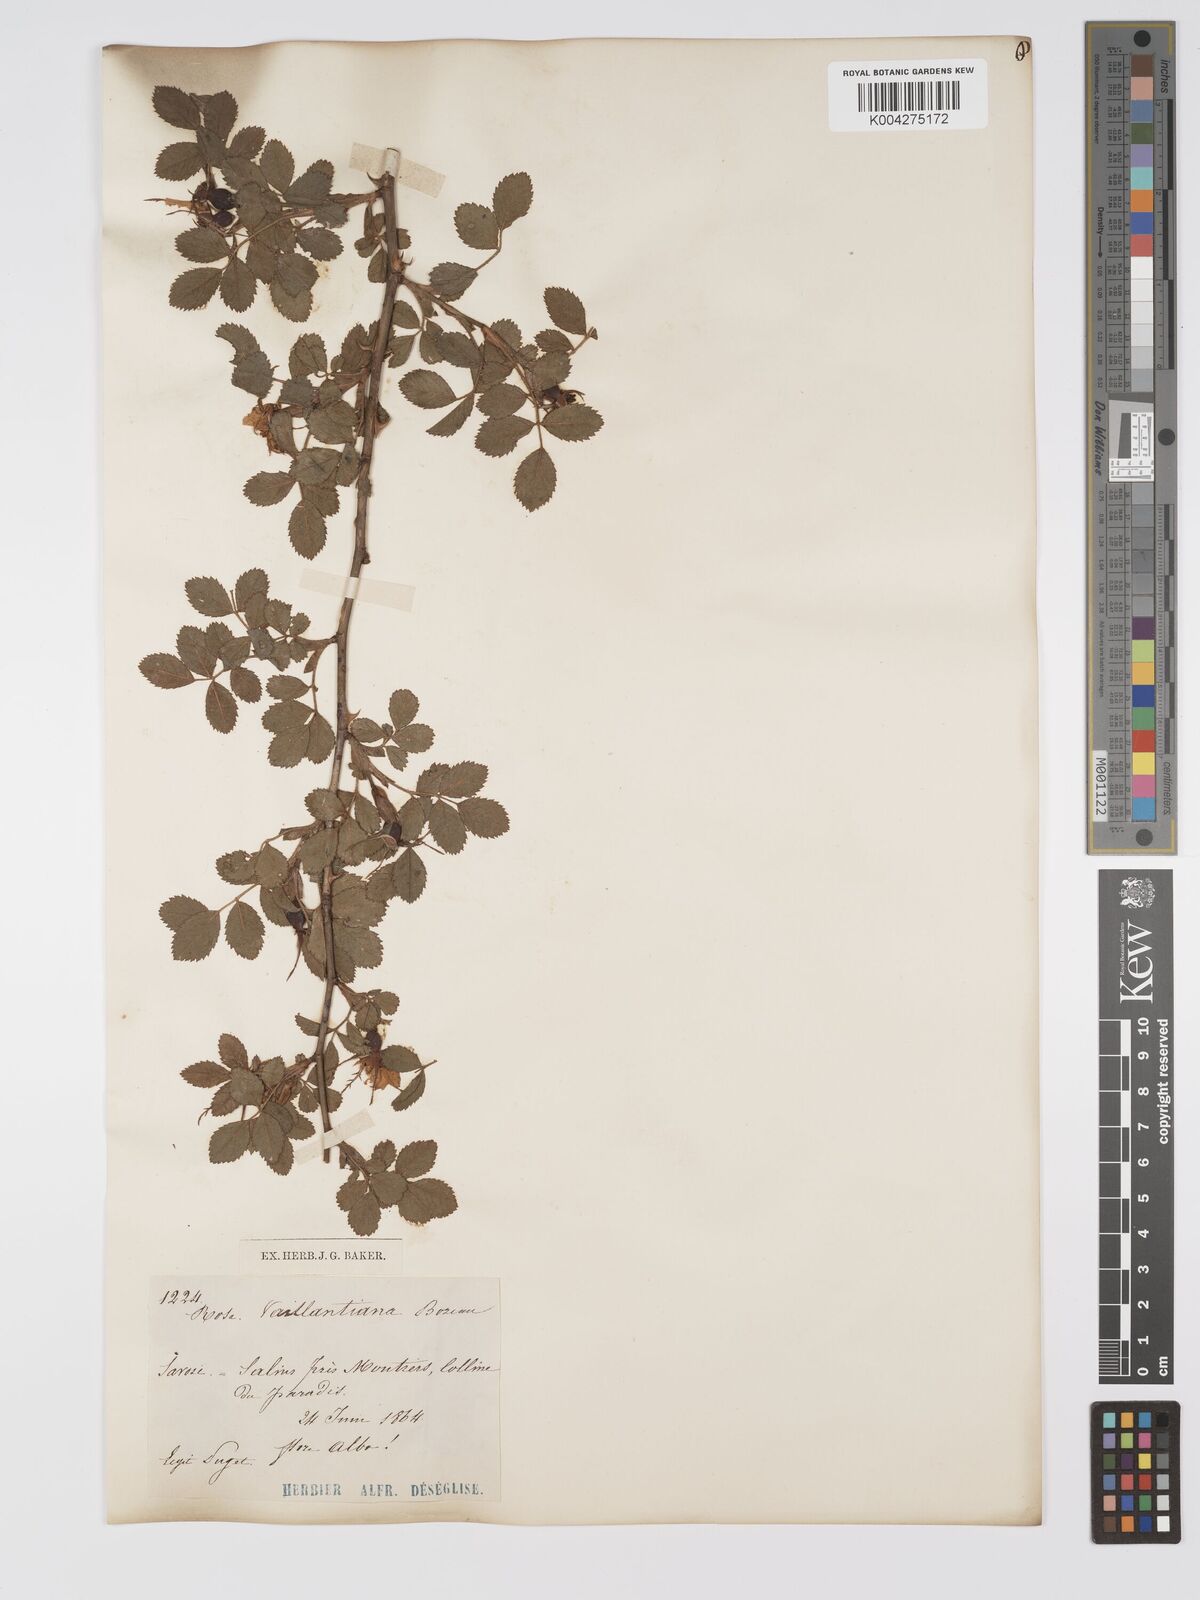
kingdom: Plantae
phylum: Tracheophyta
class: Magnoliopsida
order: Rosales
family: Rosaceae
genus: Rosa
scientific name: Rosa
